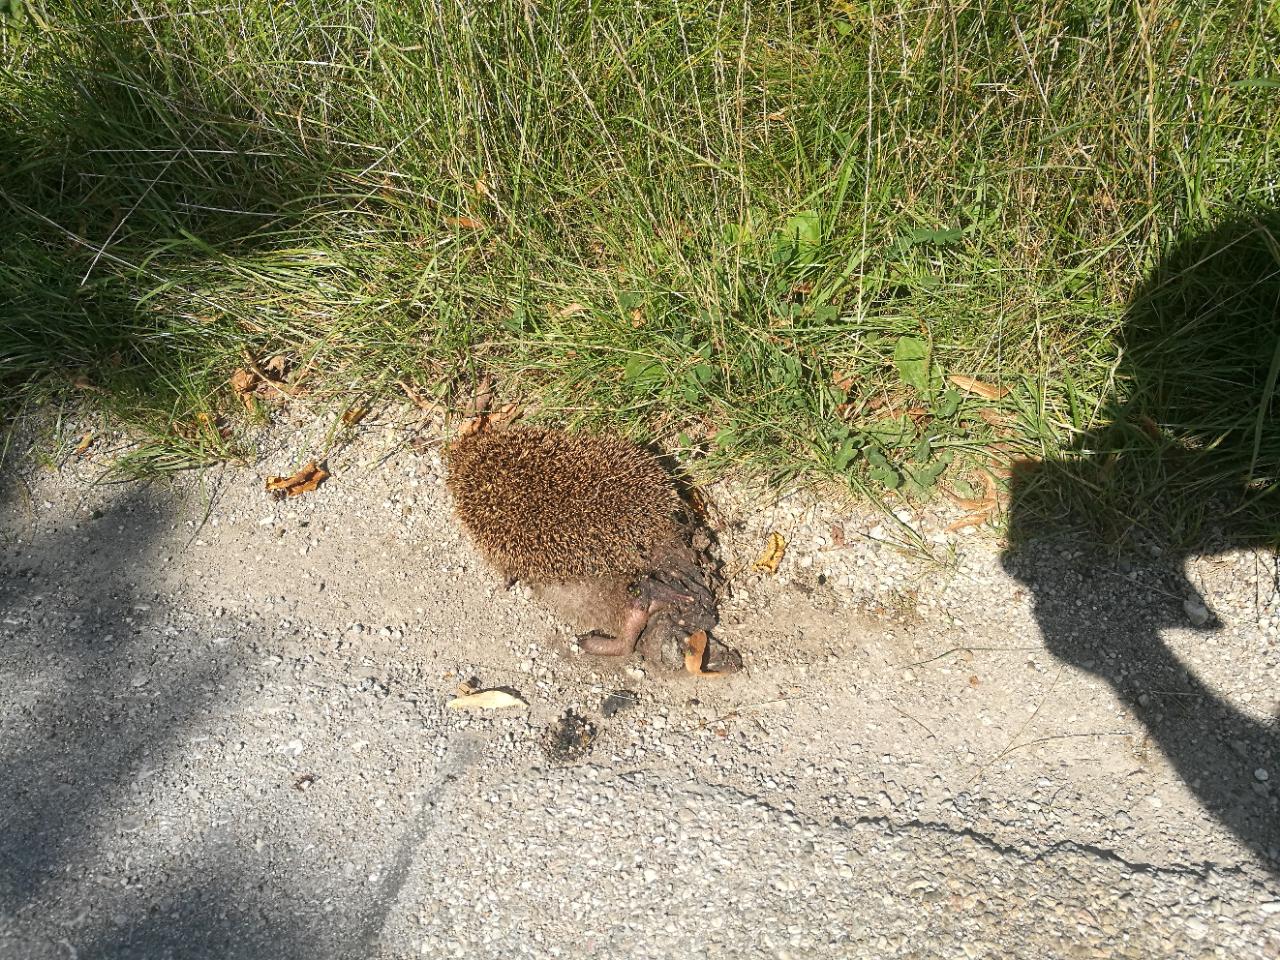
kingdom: Animalia
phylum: Chordata
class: Mammalia
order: Erinaceomorpha
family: Erinaceidae
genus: Erinaceus
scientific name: Erinaceus
